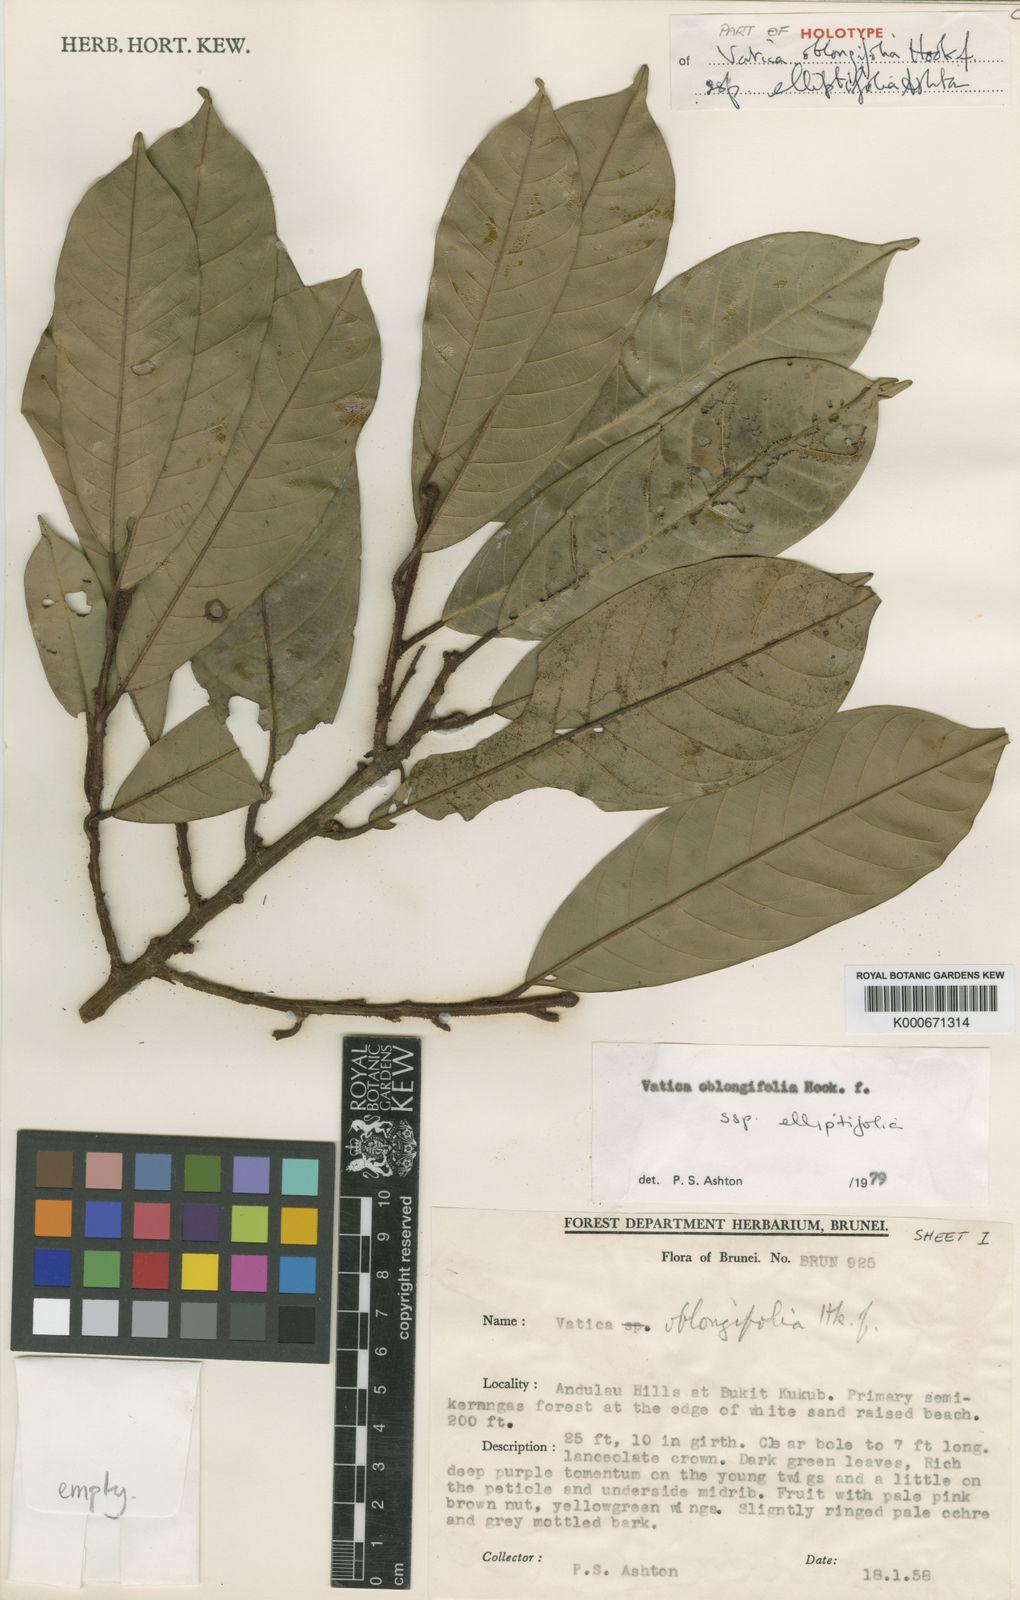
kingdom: Plantae
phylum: Tracheophyta
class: Magnoliopsida
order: Malvales
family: Dipterocarpaceae
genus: Vatica
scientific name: Vatica oblongifolia
